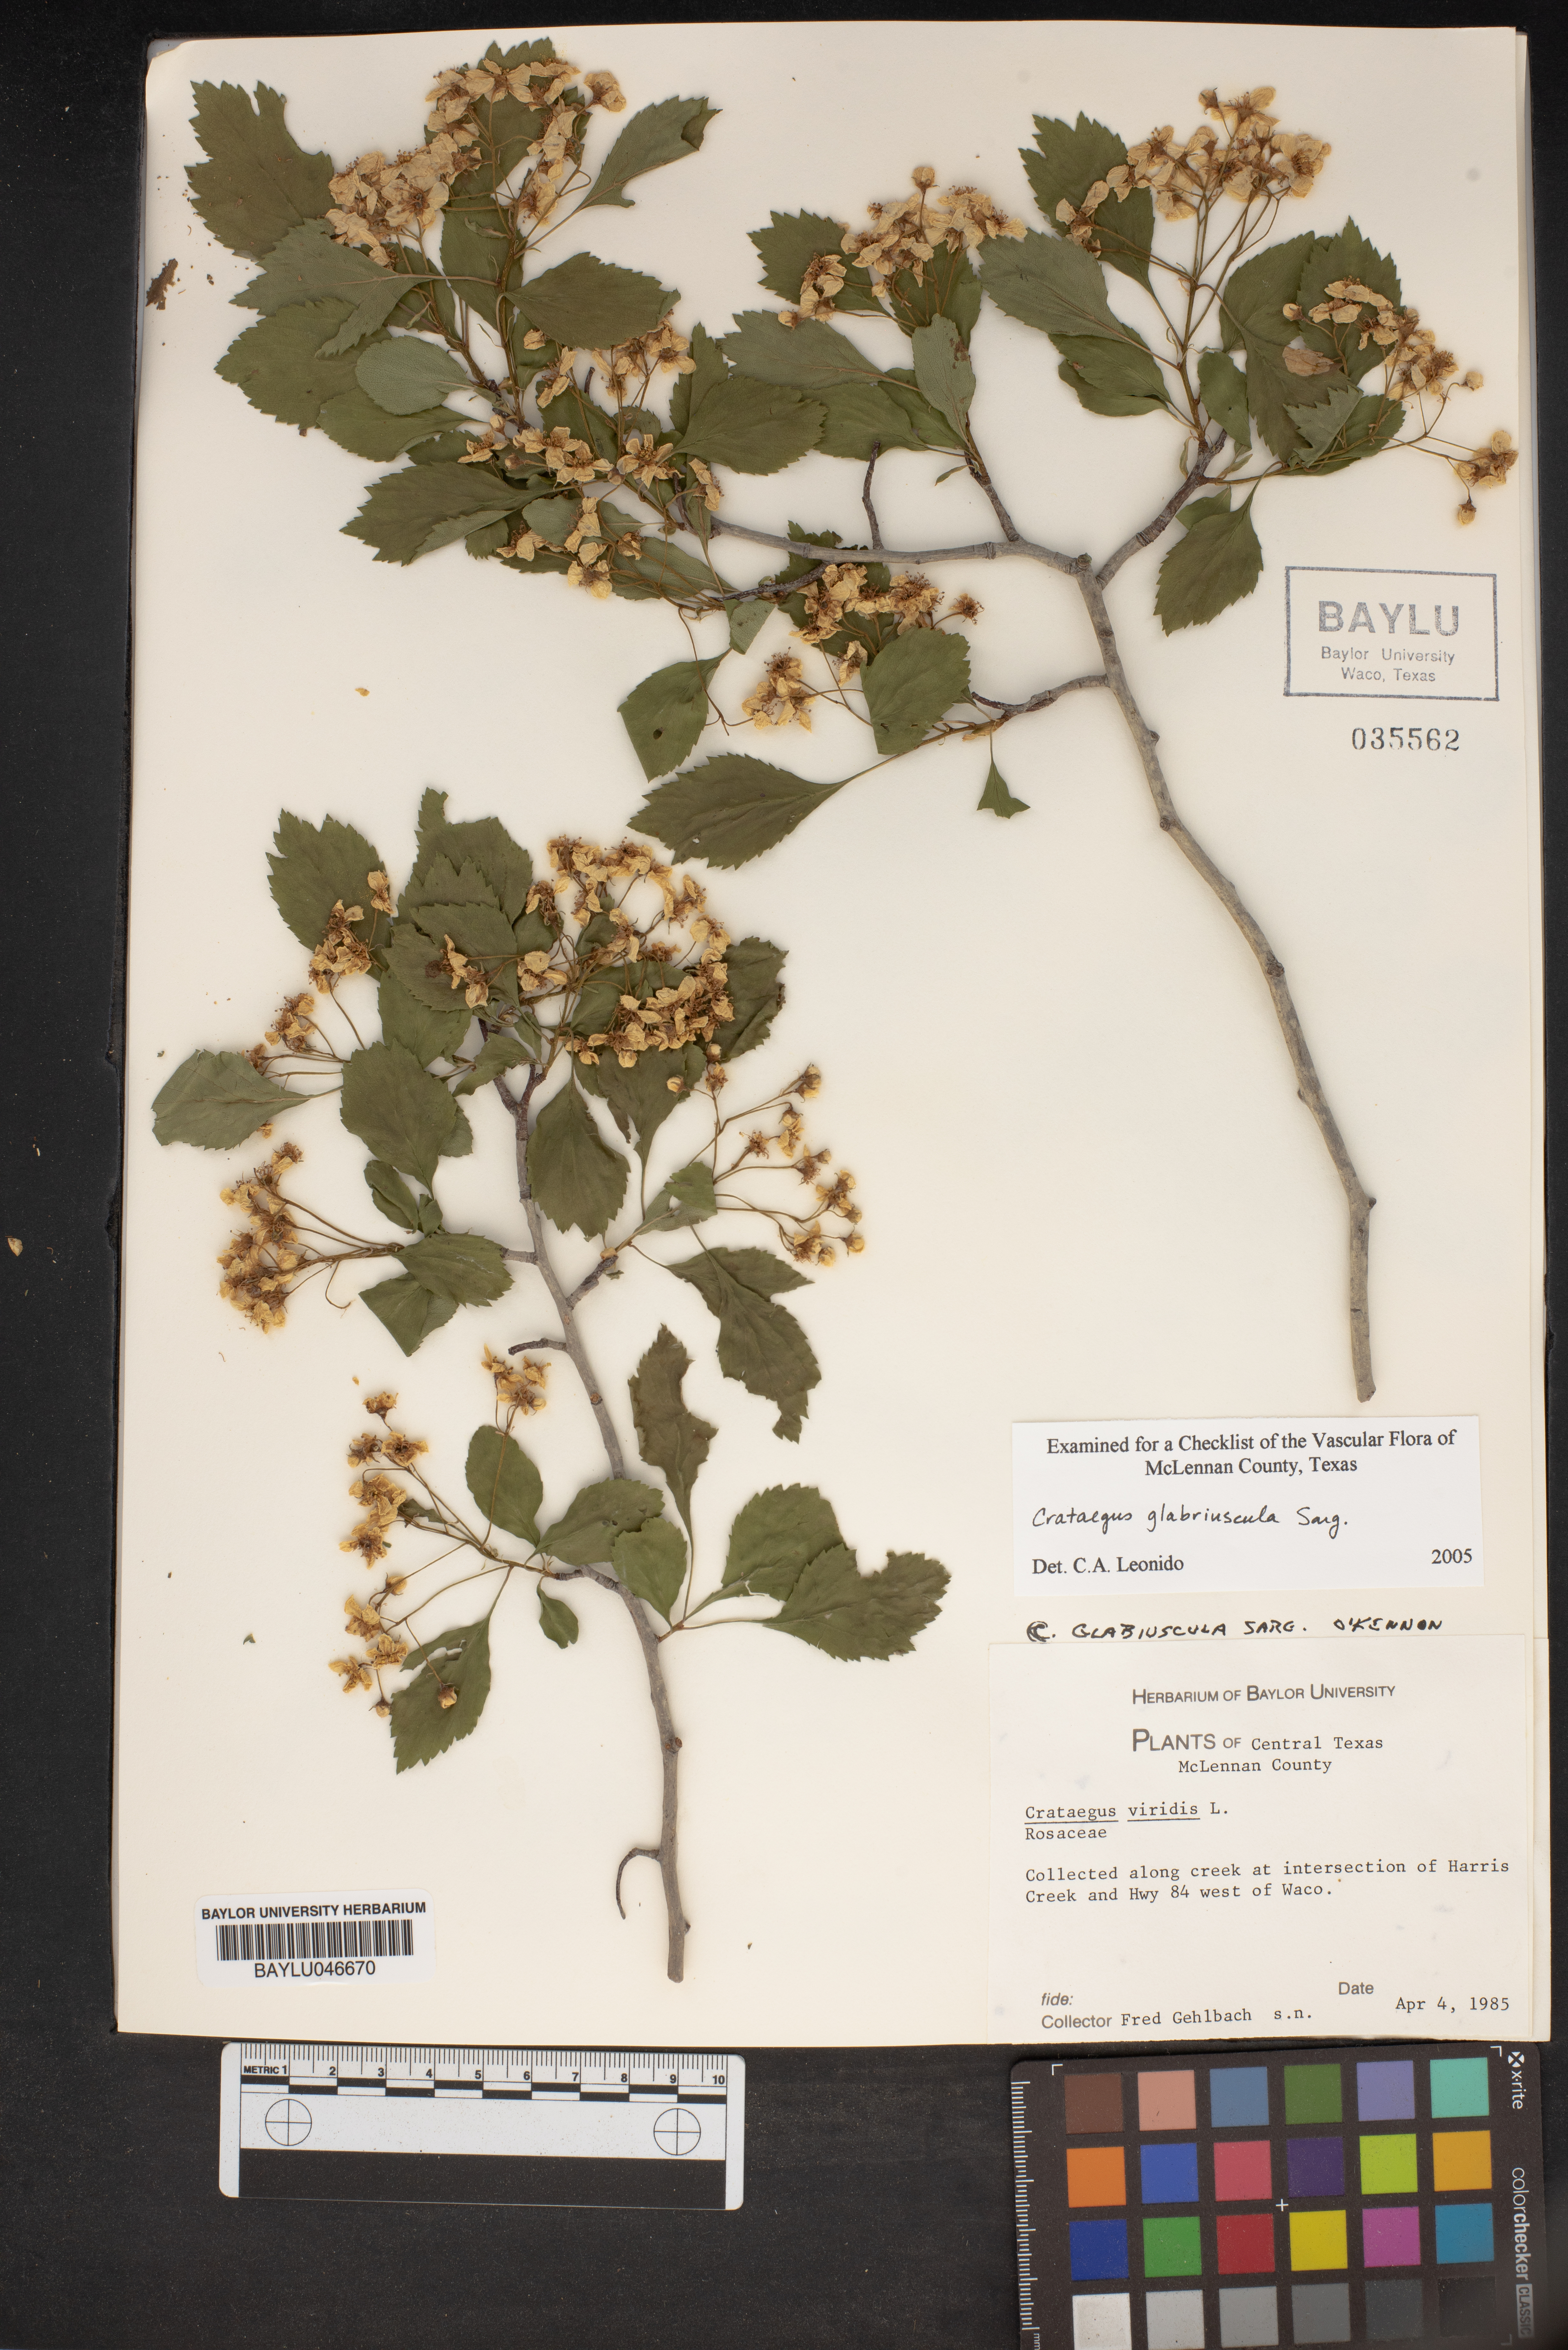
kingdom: Plantae
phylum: Tracheophyta
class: Magnoliopsida
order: Rosales
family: Rosaceae
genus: Crataegus
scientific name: Crataegus viridis
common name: Southernthorn
